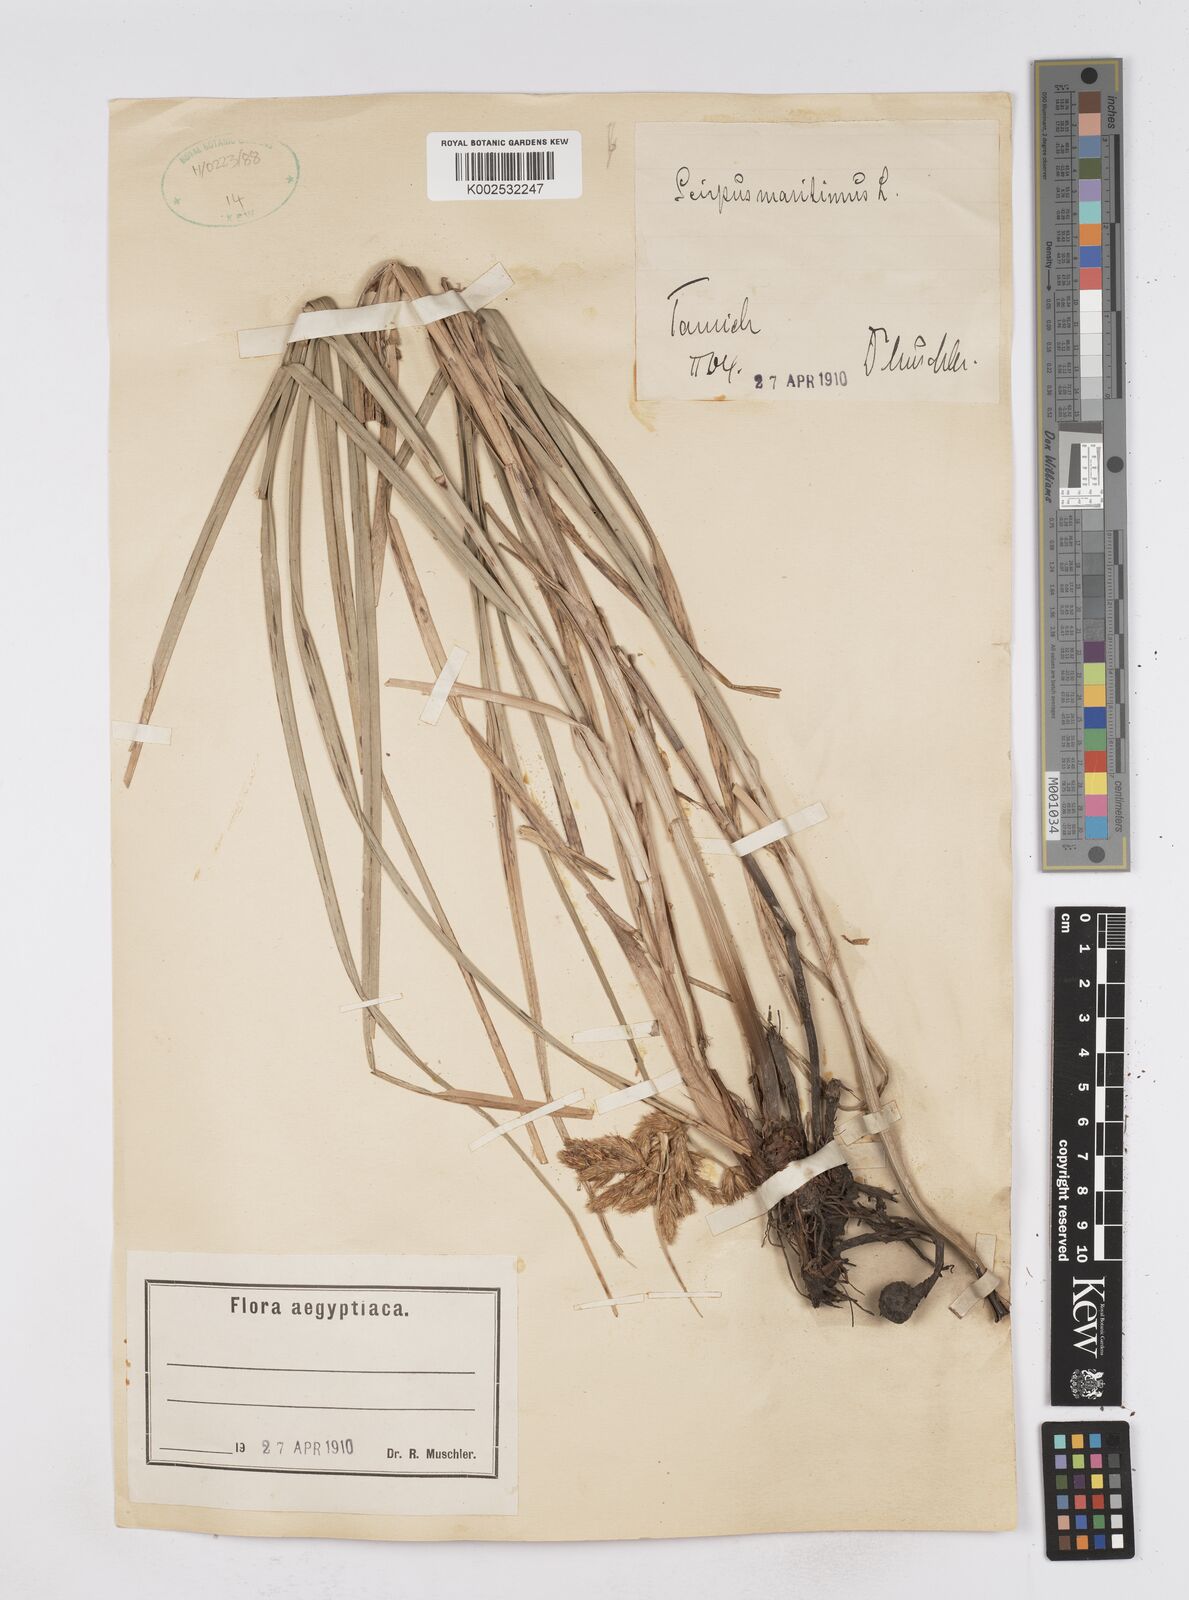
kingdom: Plantae
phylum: Tracheophyta
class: Liliopsida
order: Poales
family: Cyperaceae
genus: Bolboschoenus
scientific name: Bolboschoenus maritimus
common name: Sea club-rush
